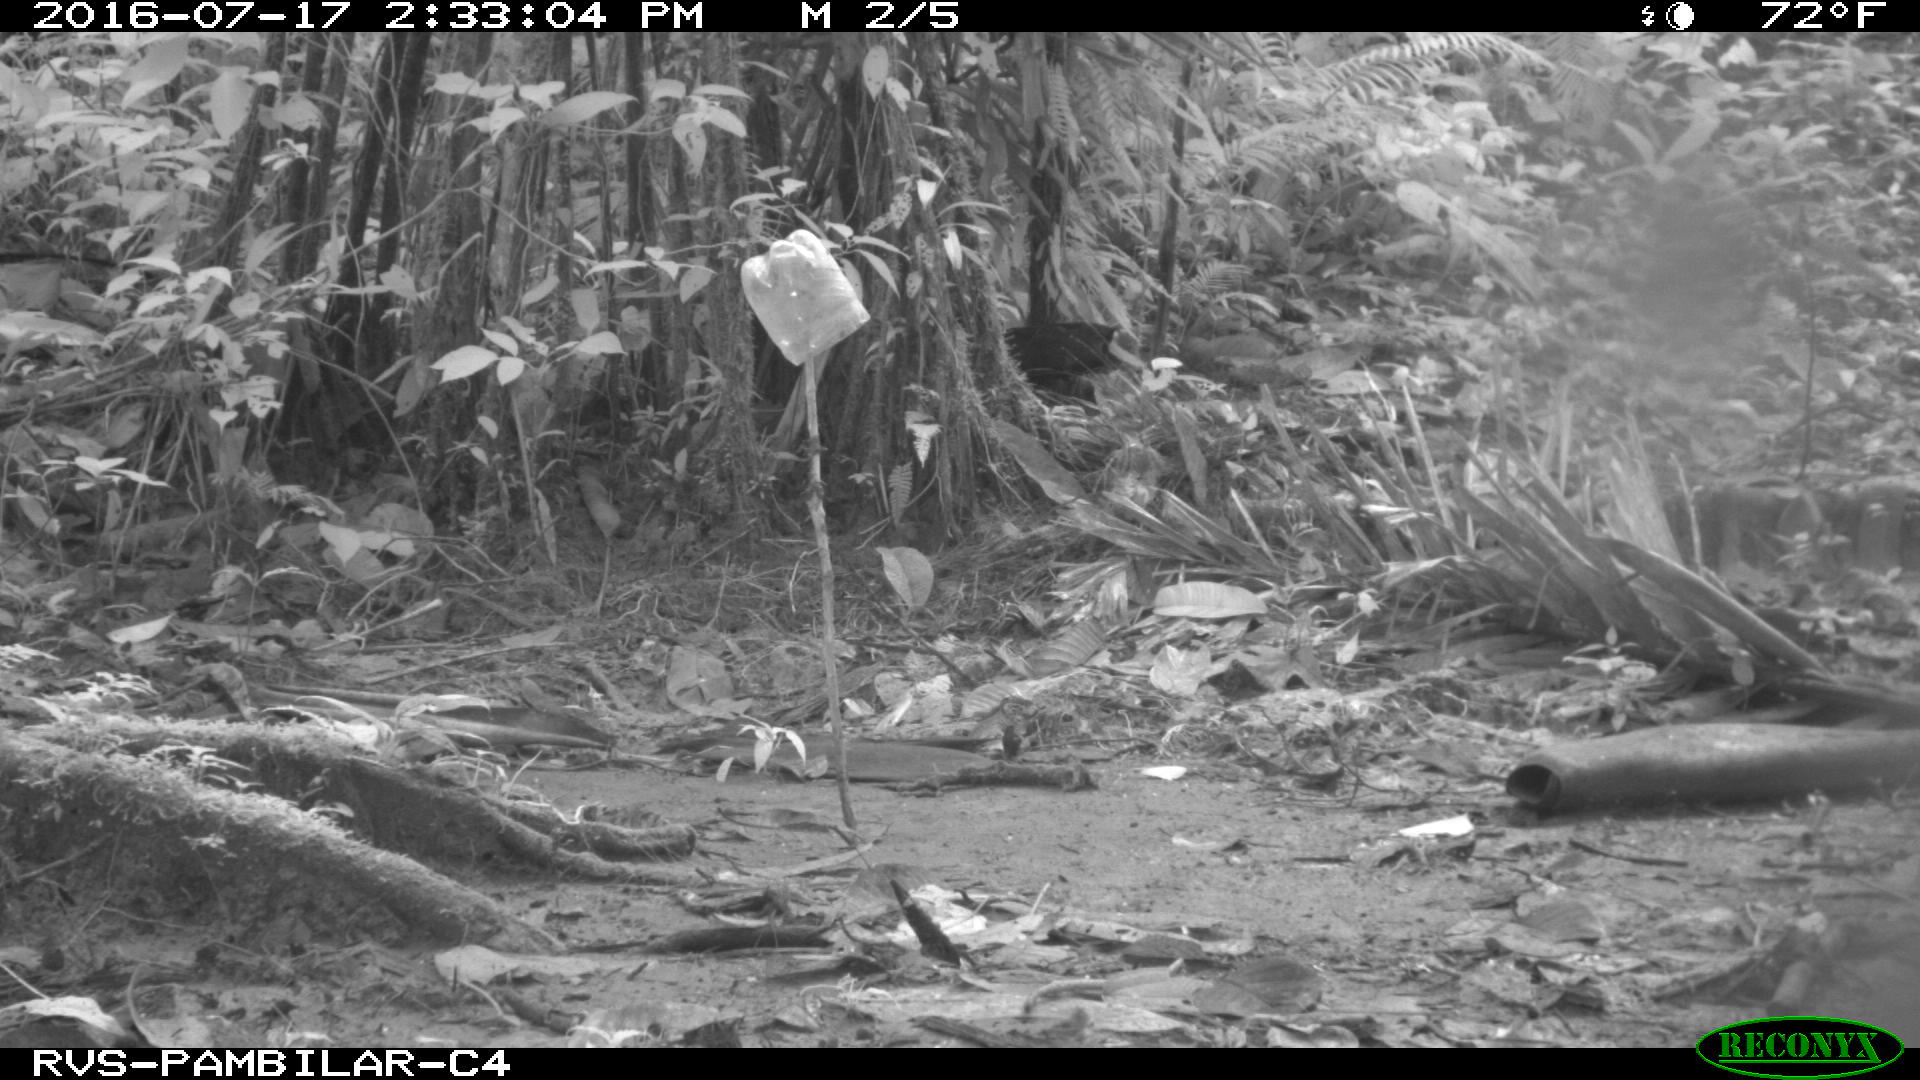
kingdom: Animalia
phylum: Chordata
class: Mammalia
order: Rodentia
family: Dasyproctidae
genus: Dasyprocta
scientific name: Dasyprocta punctata
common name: Central american agouti
